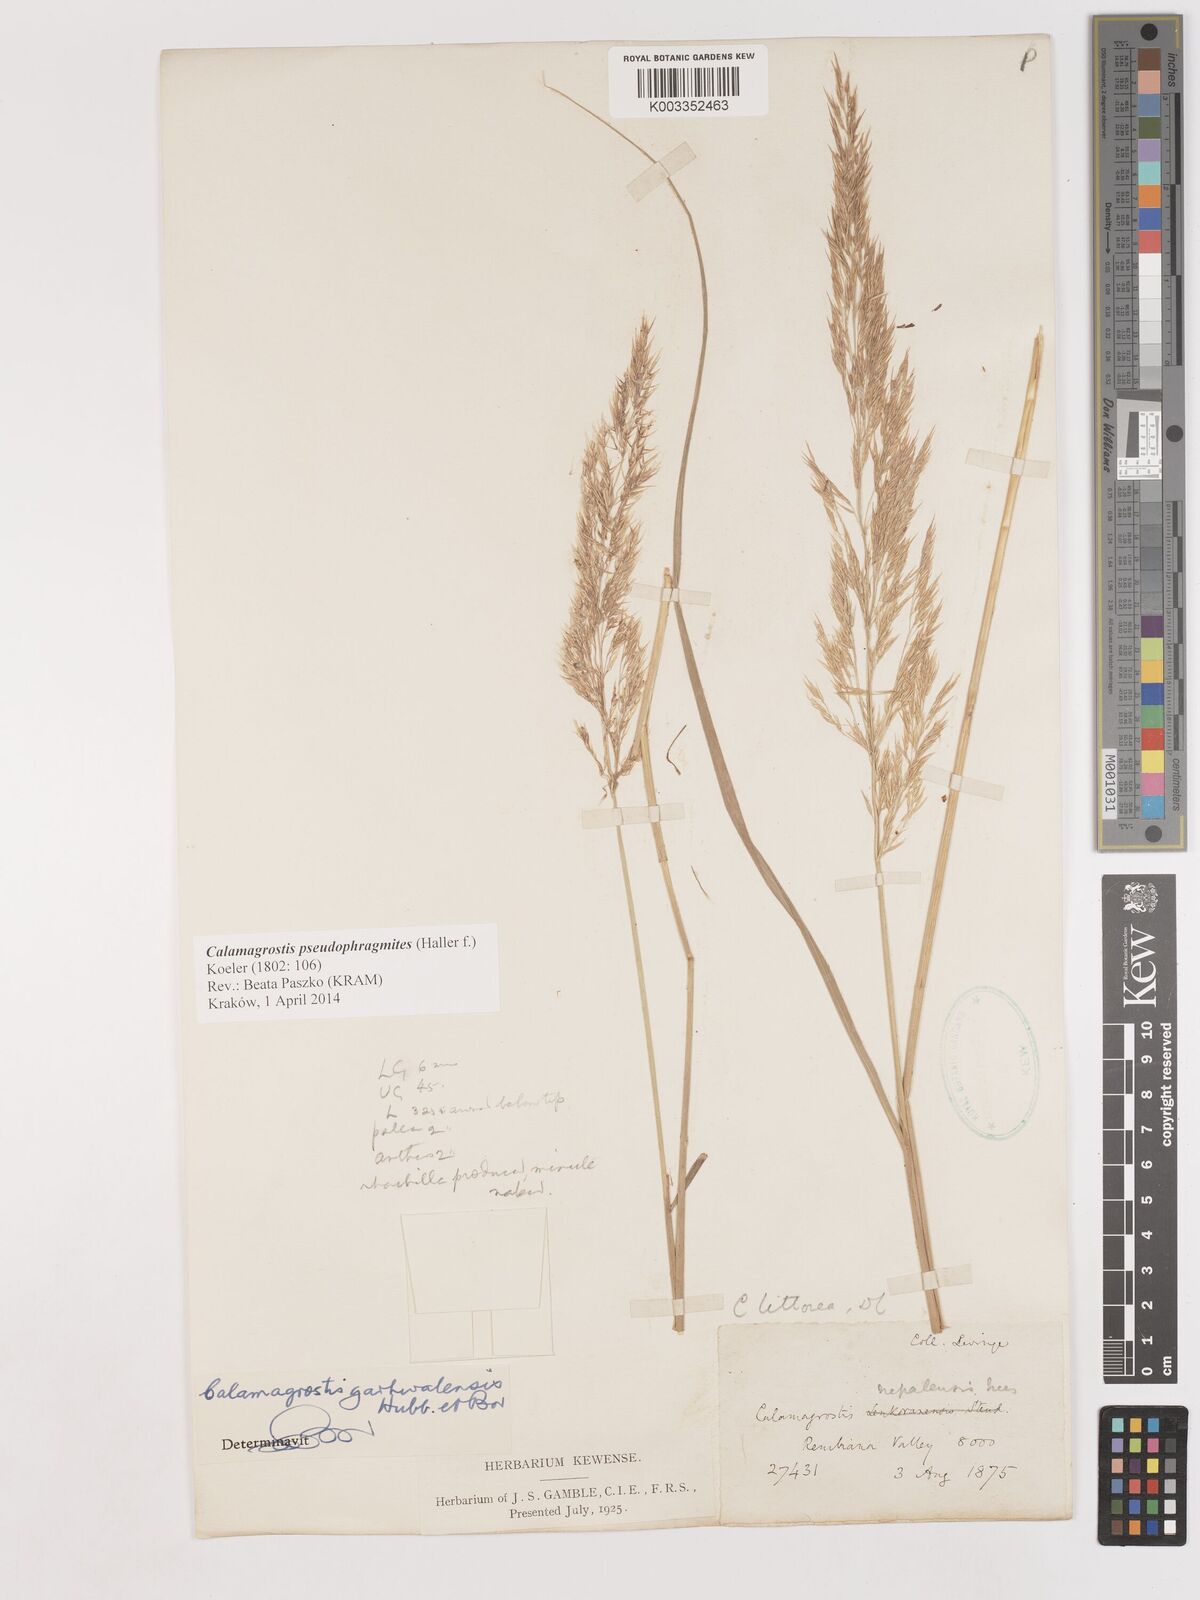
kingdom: Plantae
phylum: Tracheophyta
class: Liliopsida
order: Poales
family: Poaceae
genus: Calamagrostis
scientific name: Calamagrostis pseudophragmites
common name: Coastal small-reed
